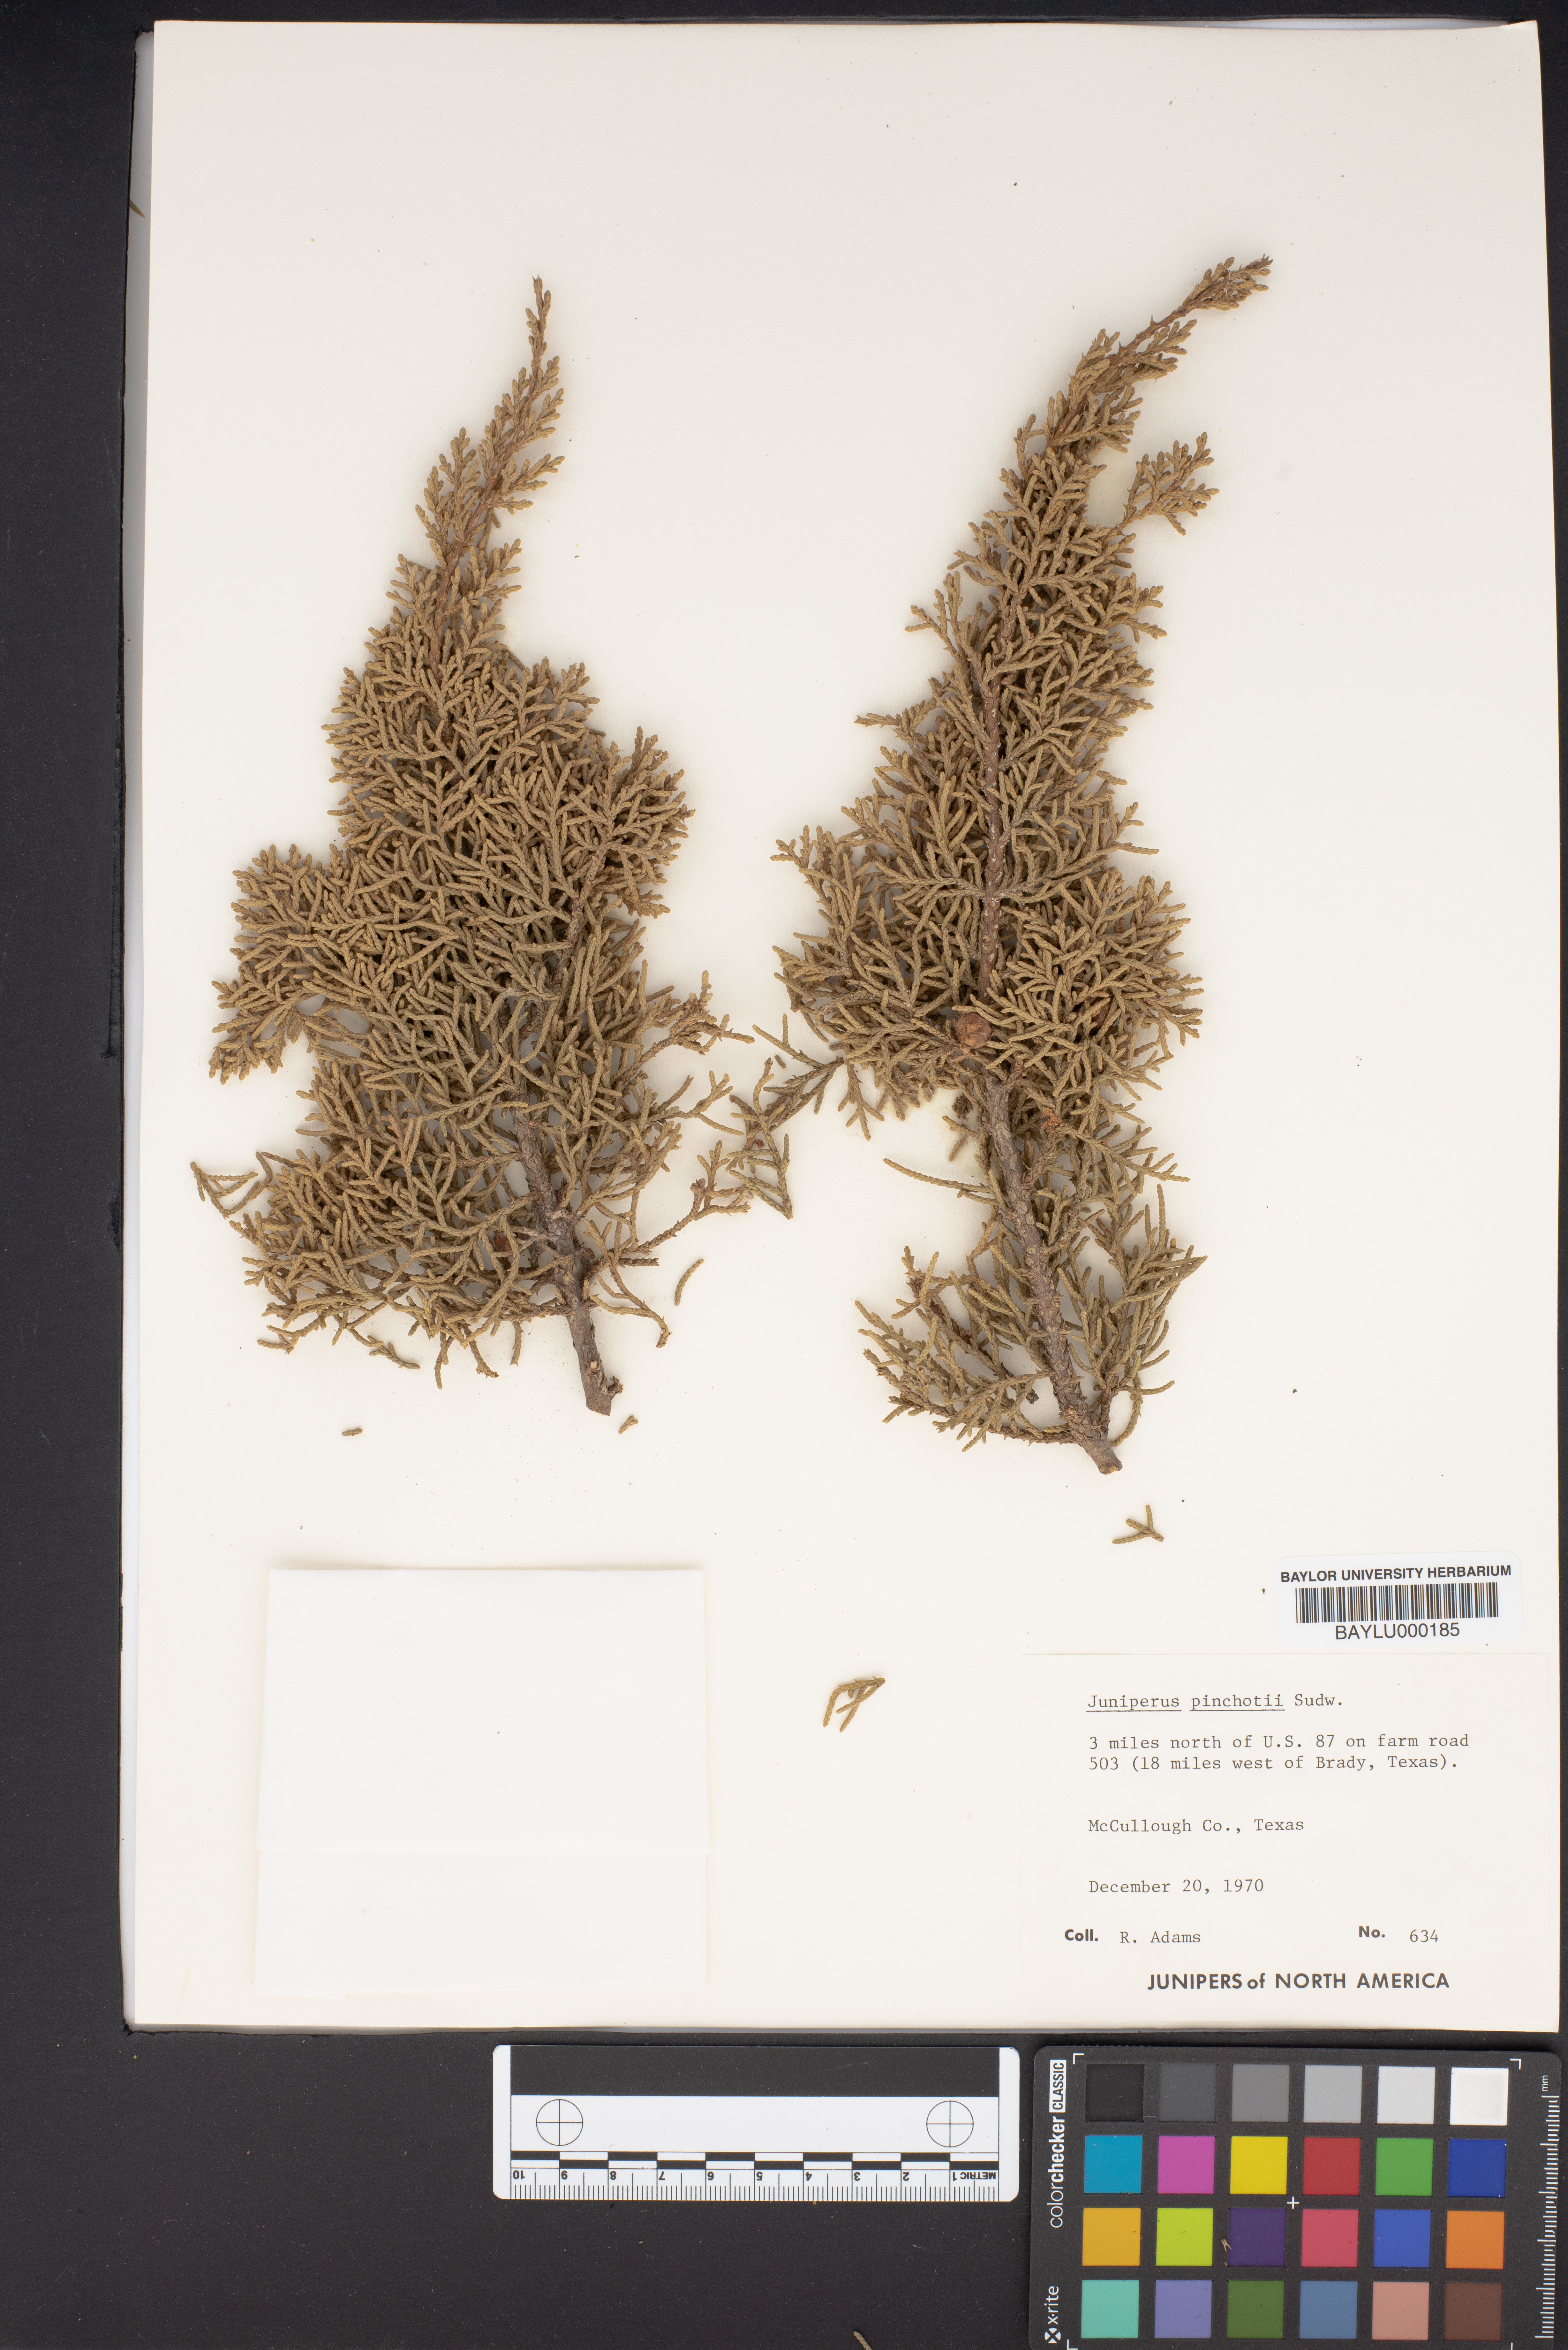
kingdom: Plantae
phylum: Tracheophyta
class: Pinopsida
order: Pinales
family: Cupressaceae
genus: Juniperus
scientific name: Juniperus pinchotii
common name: Pinchot juniper
